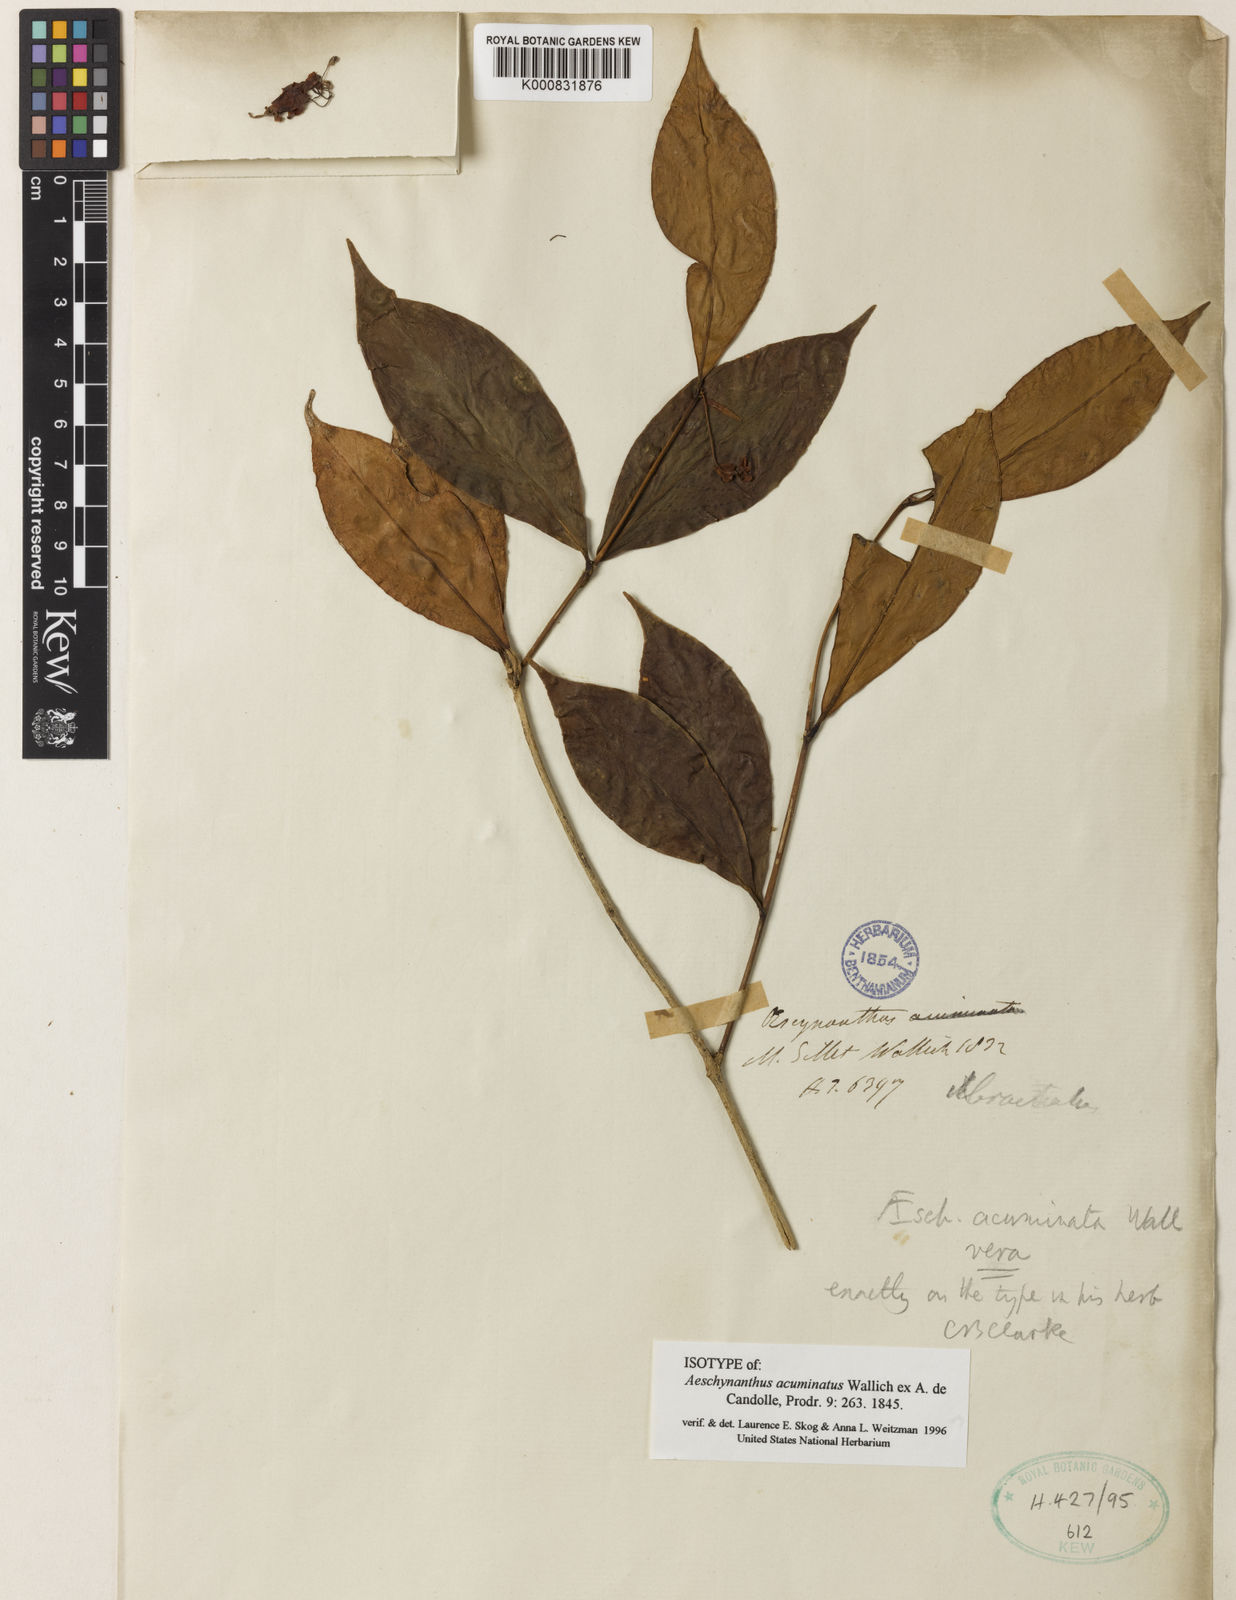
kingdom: Plantae
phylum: Tracheophyta
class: Magnoliopsida
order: Lamiales
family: Gesneriaceae
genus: Aeschynanthus
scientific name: Aeschynanthus acuminatus
